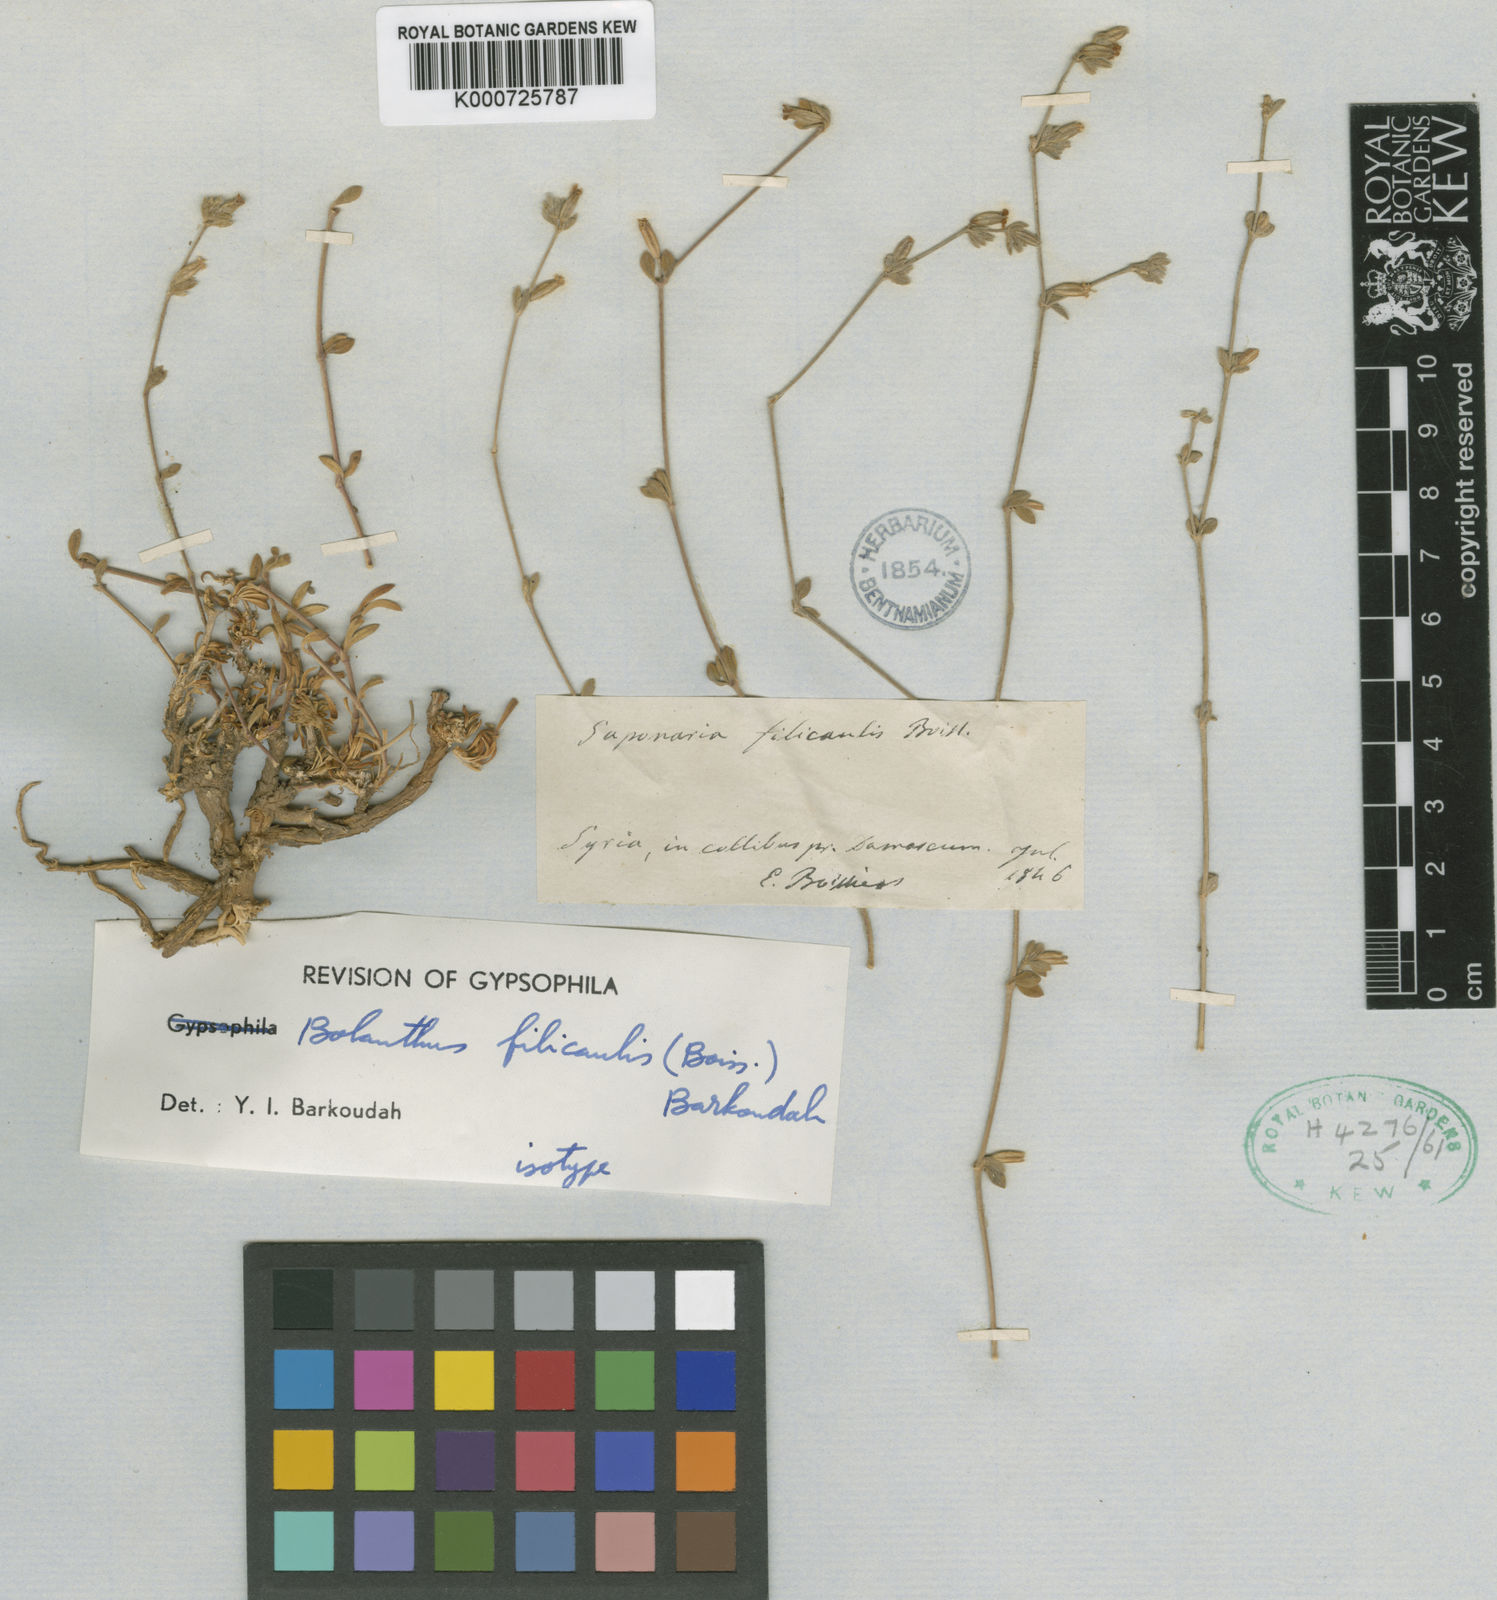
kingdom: Plantae
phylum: Tracheophyta
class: Magnoliopsida
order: Caryophyllales
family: Caryophyllaceae
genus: Bolanthus
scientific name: Bolanthus filicaulis
